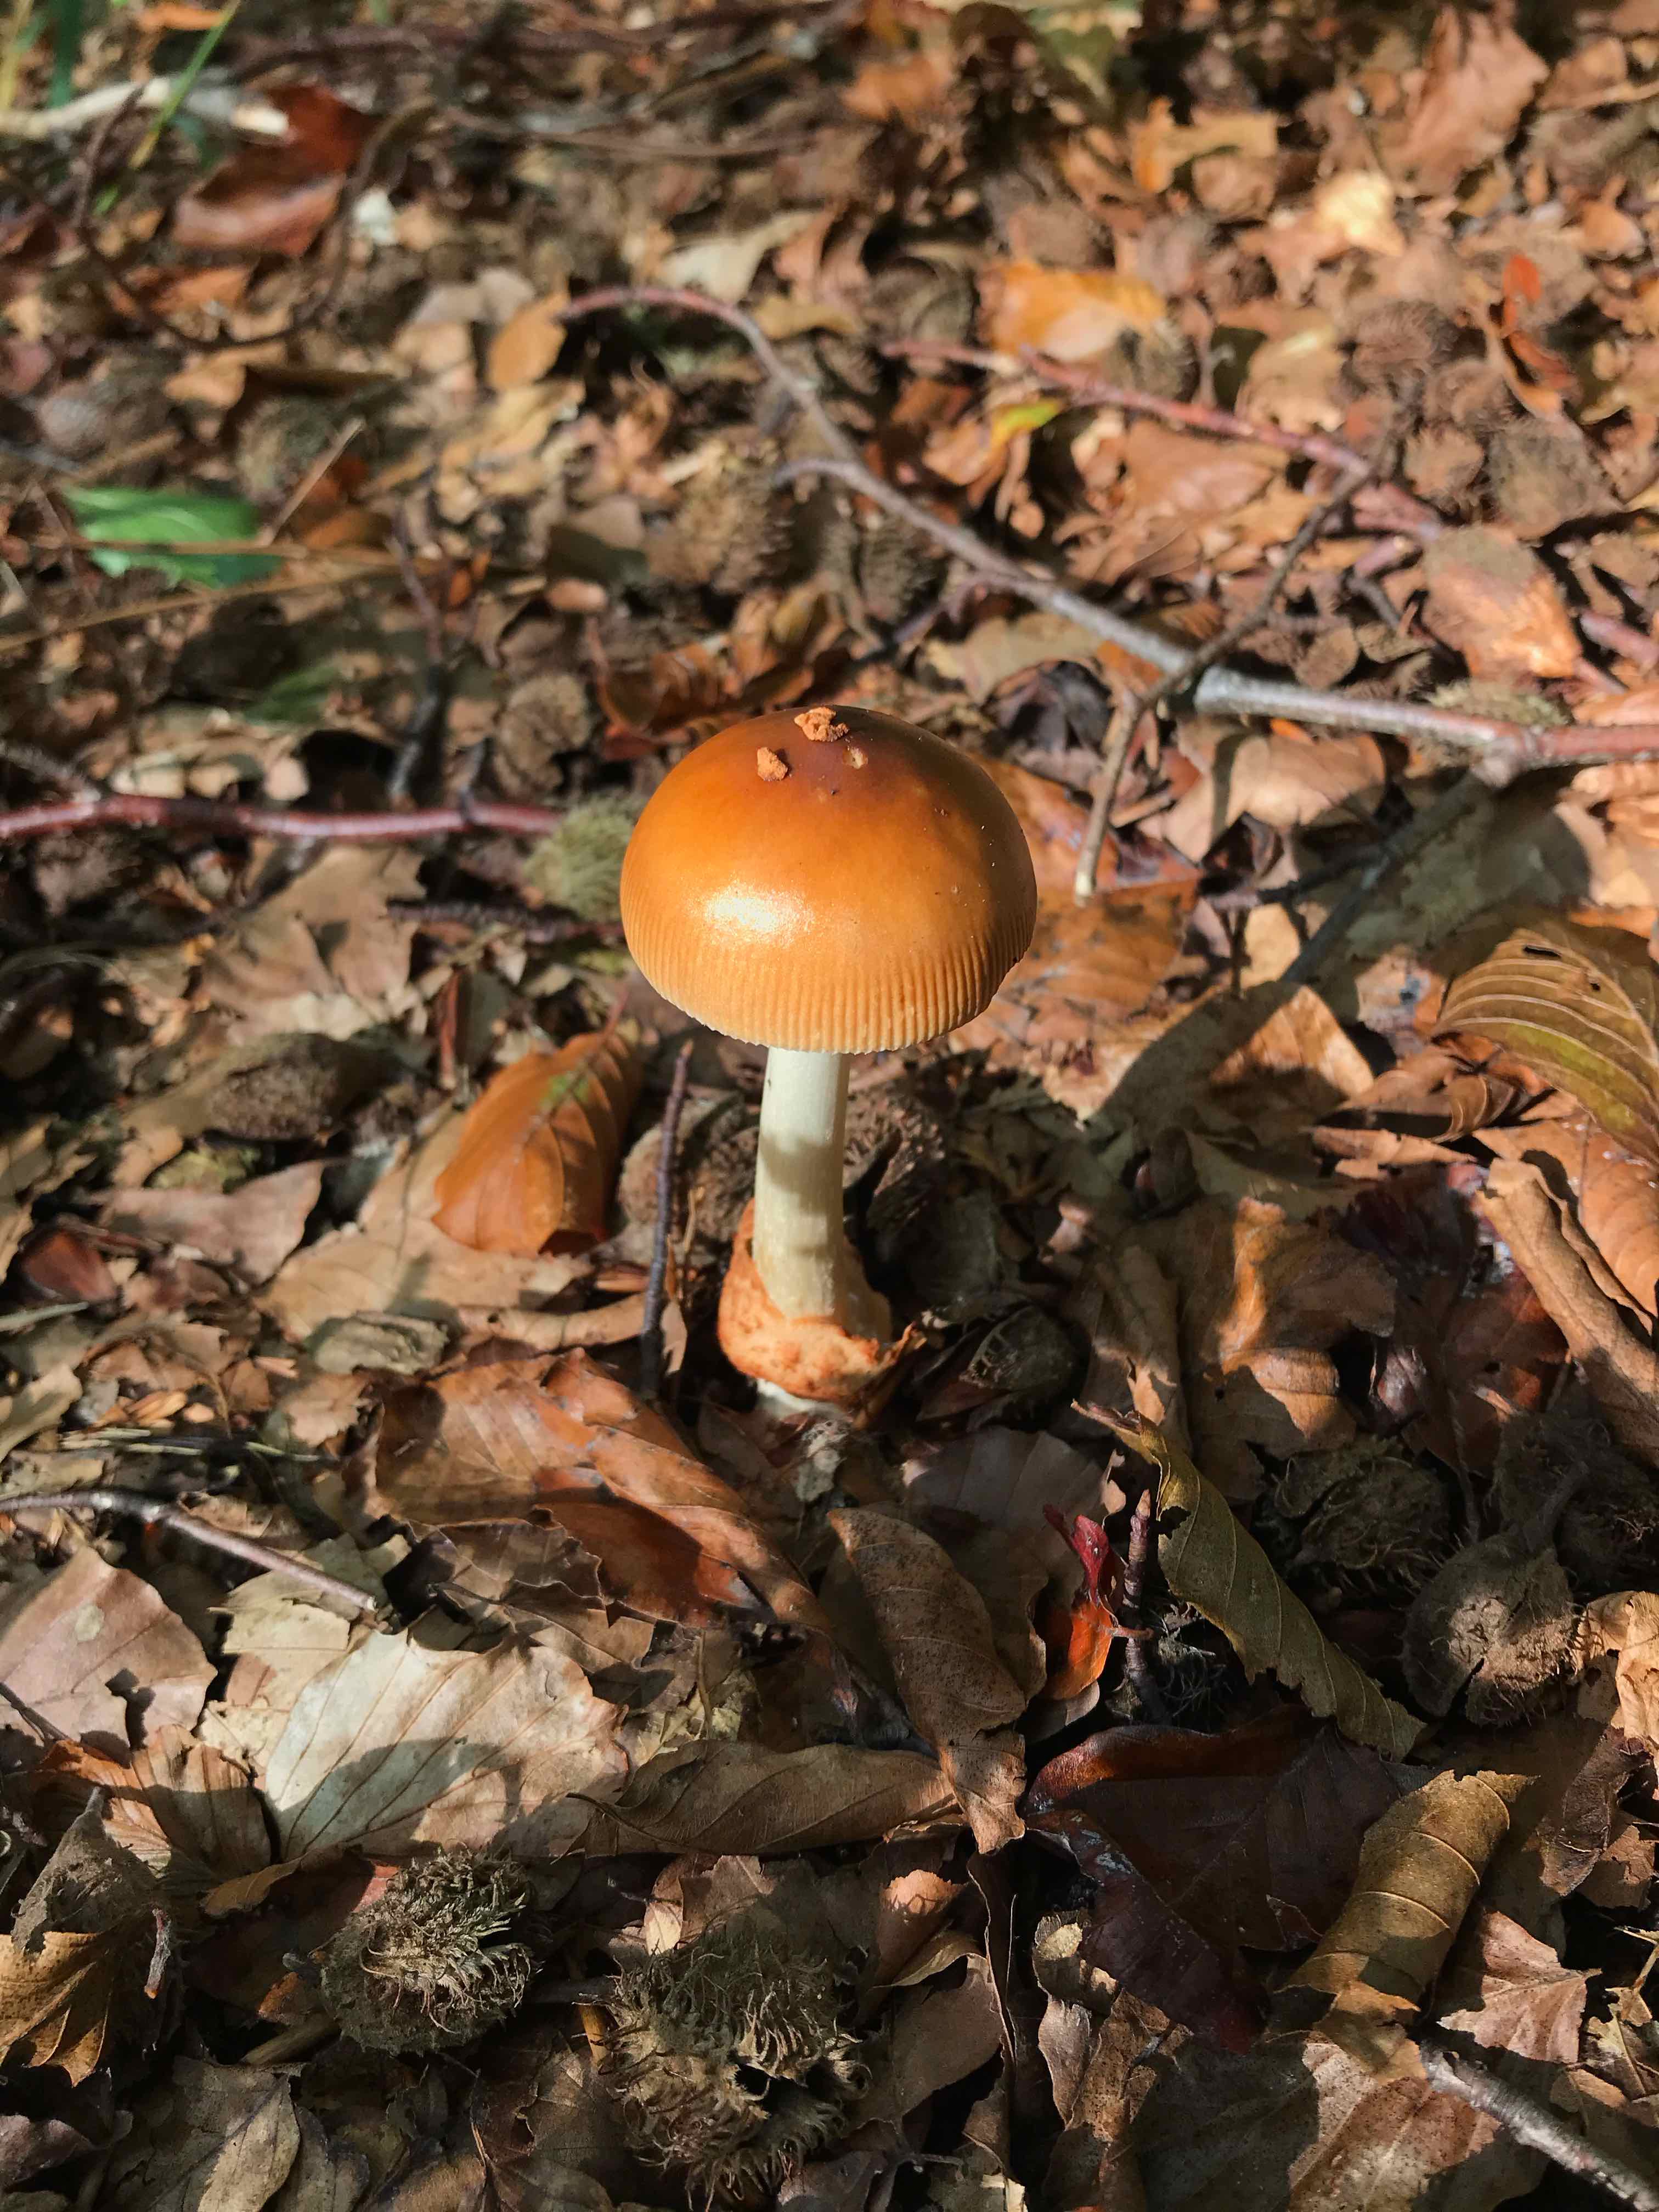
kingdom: Fungi
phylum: Basidiomycota
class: Agaricomycetes
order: Agaricales
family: Amanitaceae
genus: Amanita
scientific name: Amanita fulva
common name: brun kam-fluesvamp
